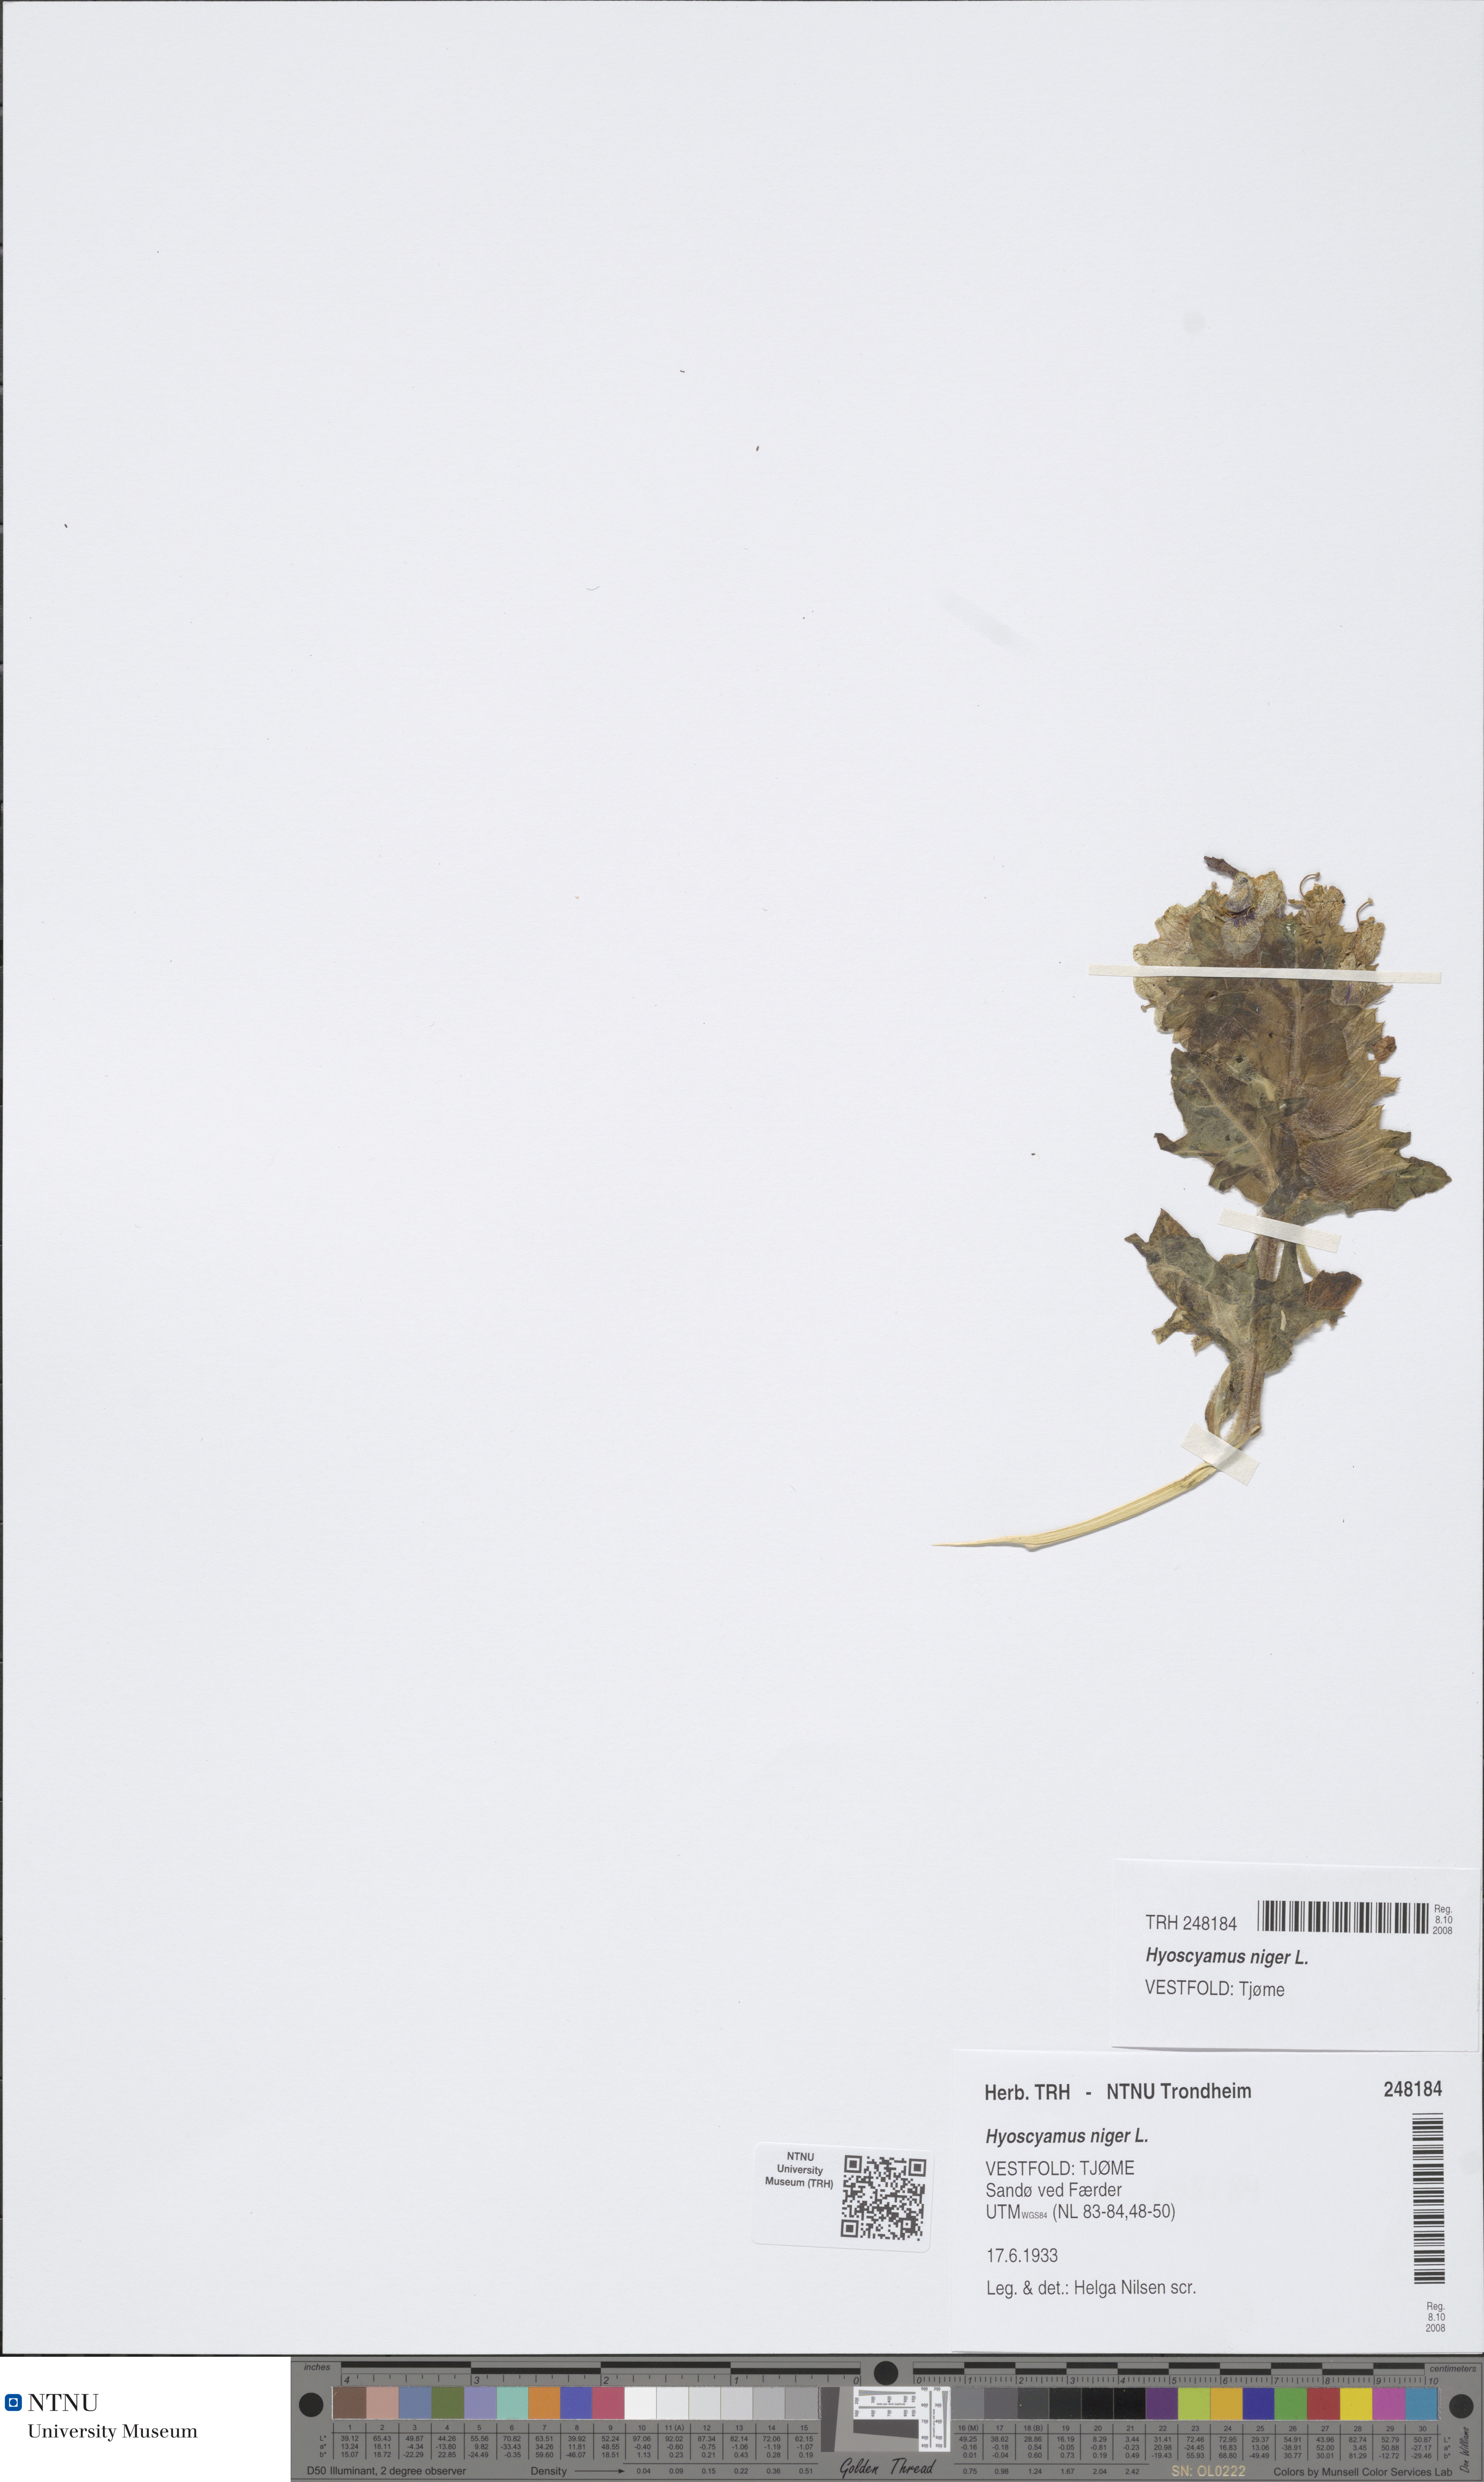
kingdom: Plantae
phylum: Tracheophyta
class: Magnoliopsida
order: Solanales
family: Solanaceae
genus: Hyoscyamus
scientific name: Hyoscyamus niger
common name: Henbane
